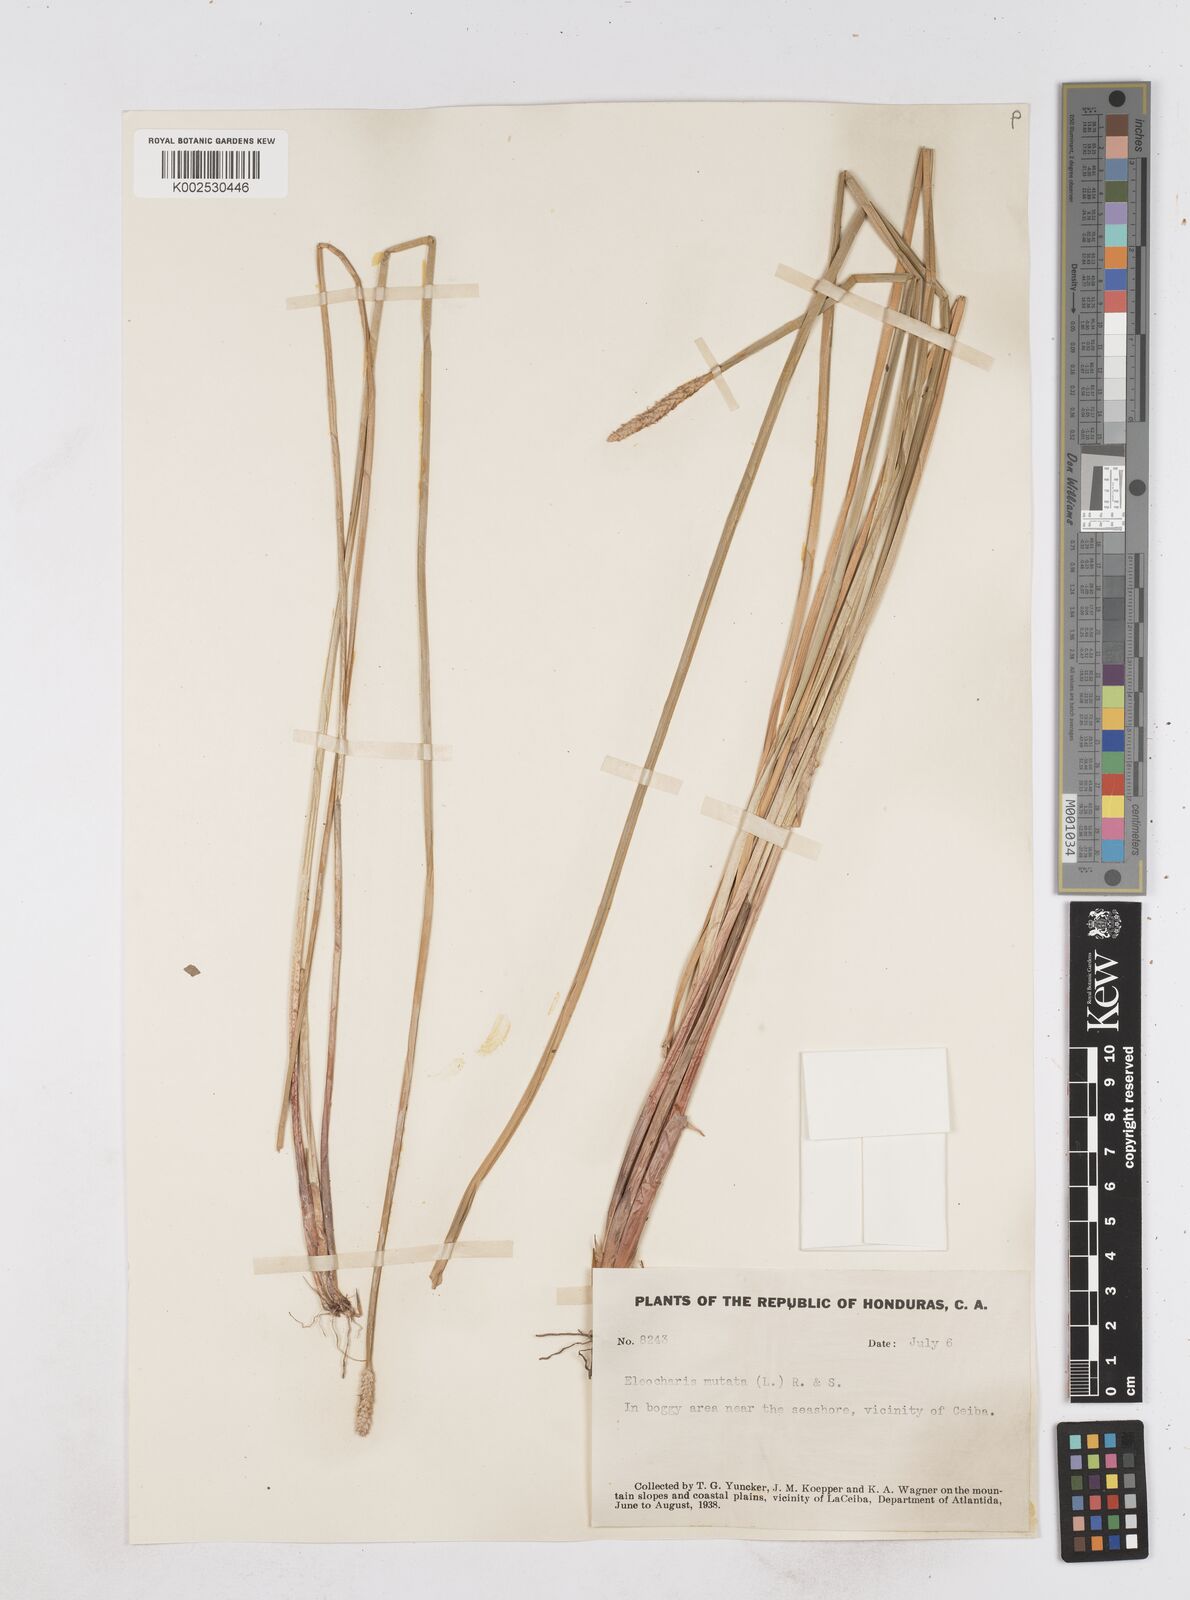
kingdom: Plantae
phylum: Tracheophyta
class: Liliopsida
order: Poales
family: Cyperaceae
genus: Eleocharis
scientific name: Eleocharis mutata
